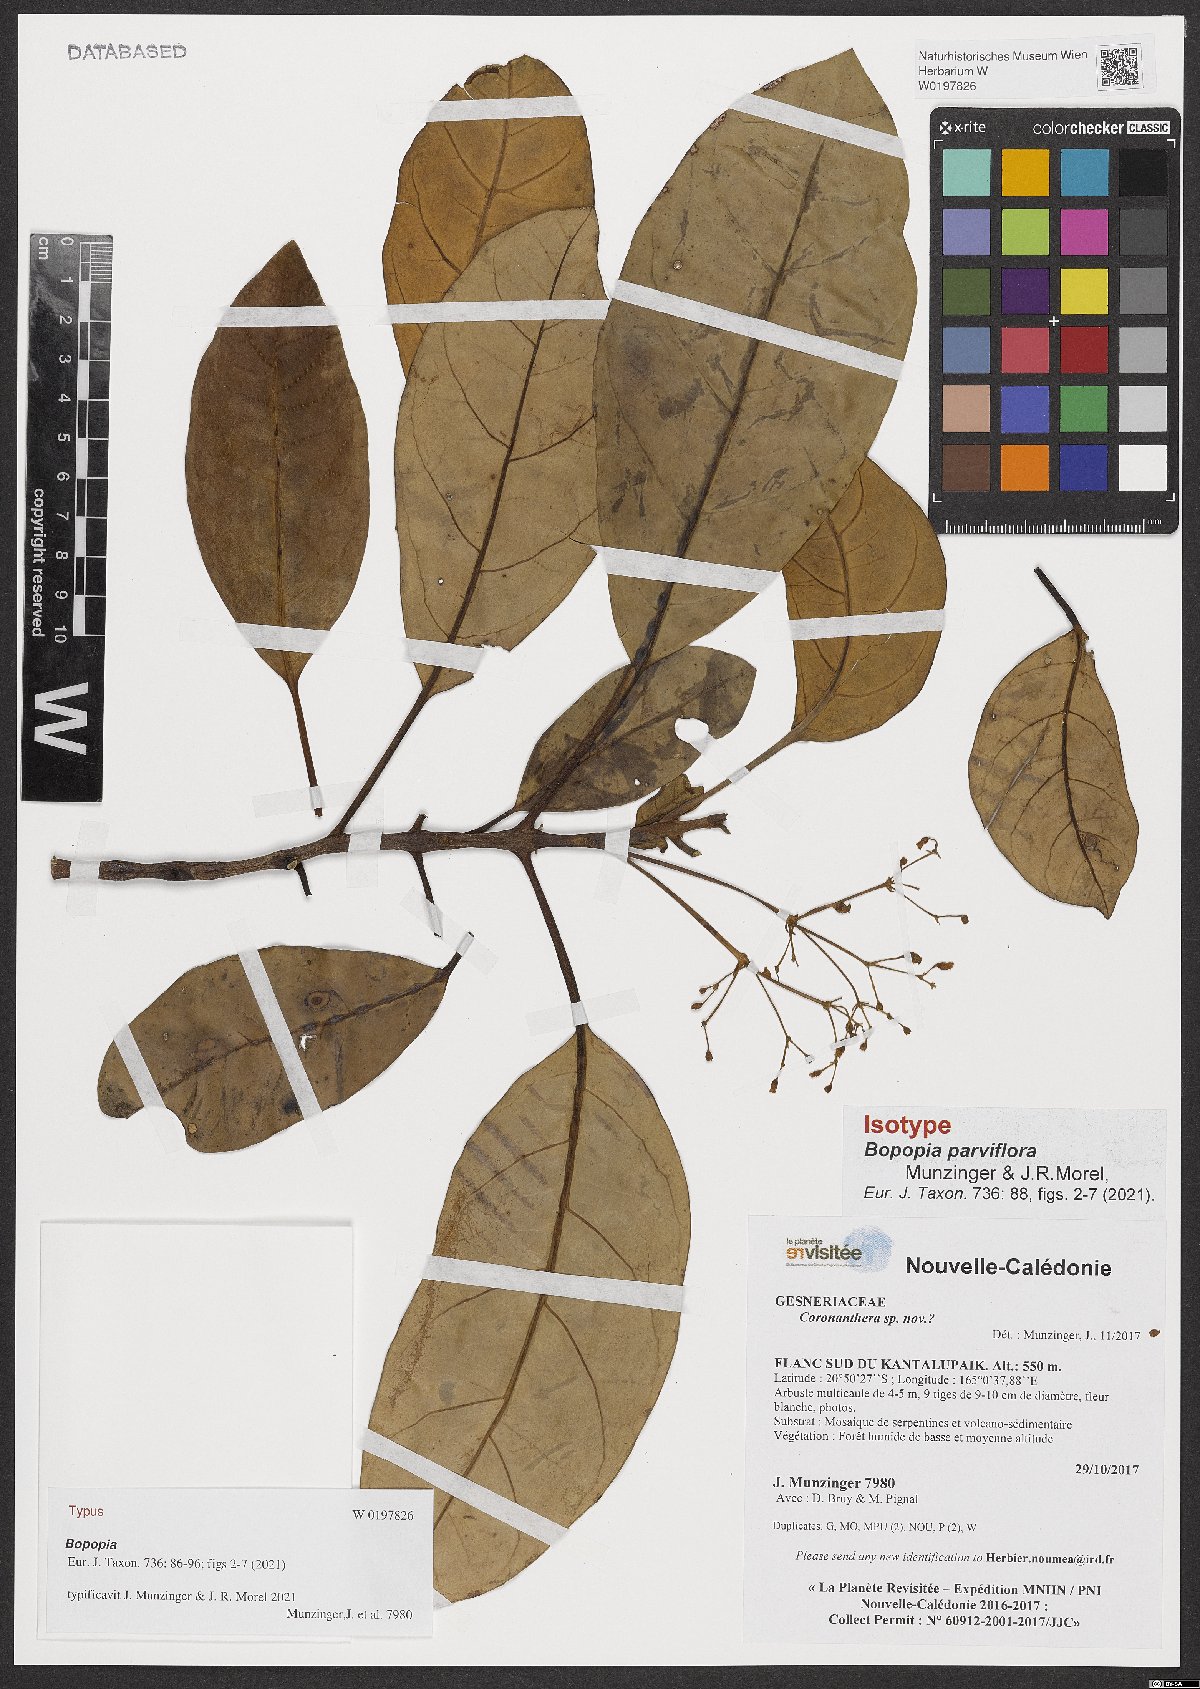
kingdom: Plantae
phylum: Tracheophyta
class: Magnoliopsida
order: Lamiales
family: Gesneriaceae
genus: Bopopia
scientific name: Bopopia parviflora
